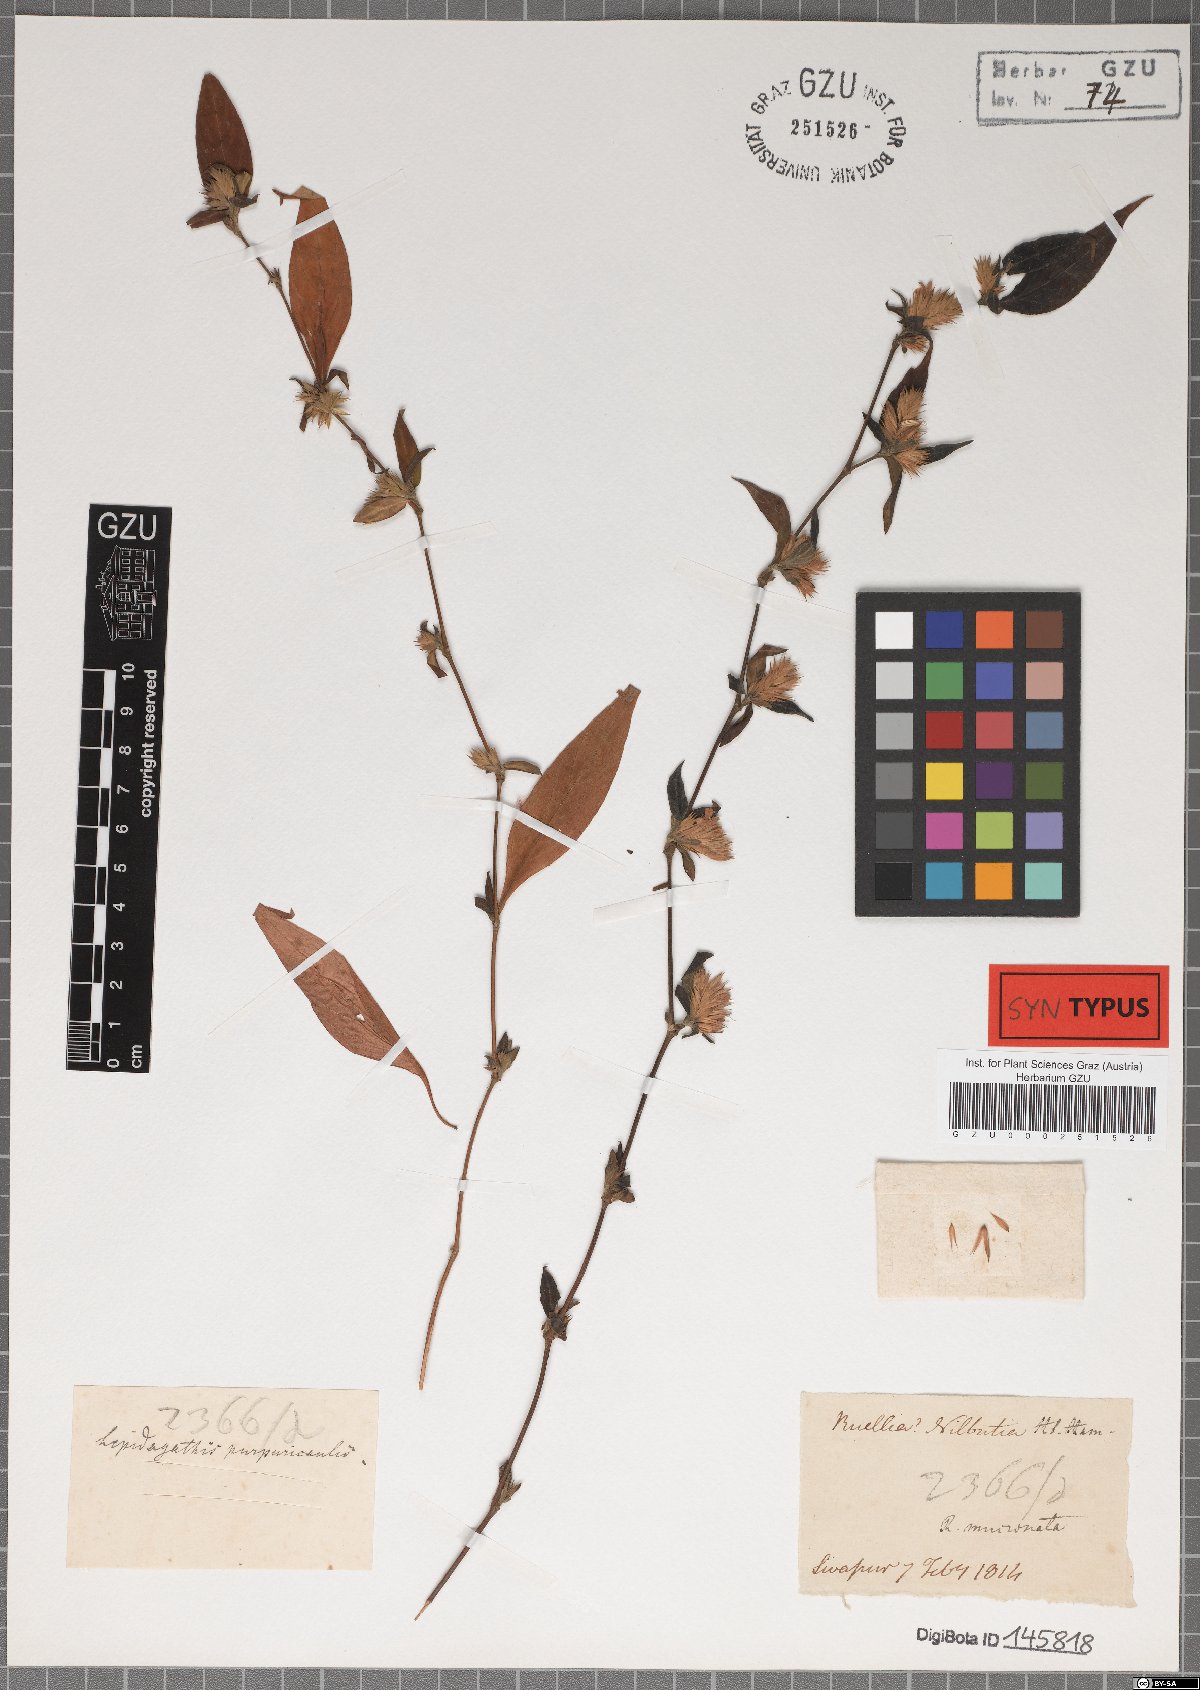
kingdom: Plantae
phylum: Tracheophyta
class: Magnoliopsida
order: Lamiales
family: Acanthaceae
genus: Lepidagathis
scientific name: Lepidagathis purpuricaulis
